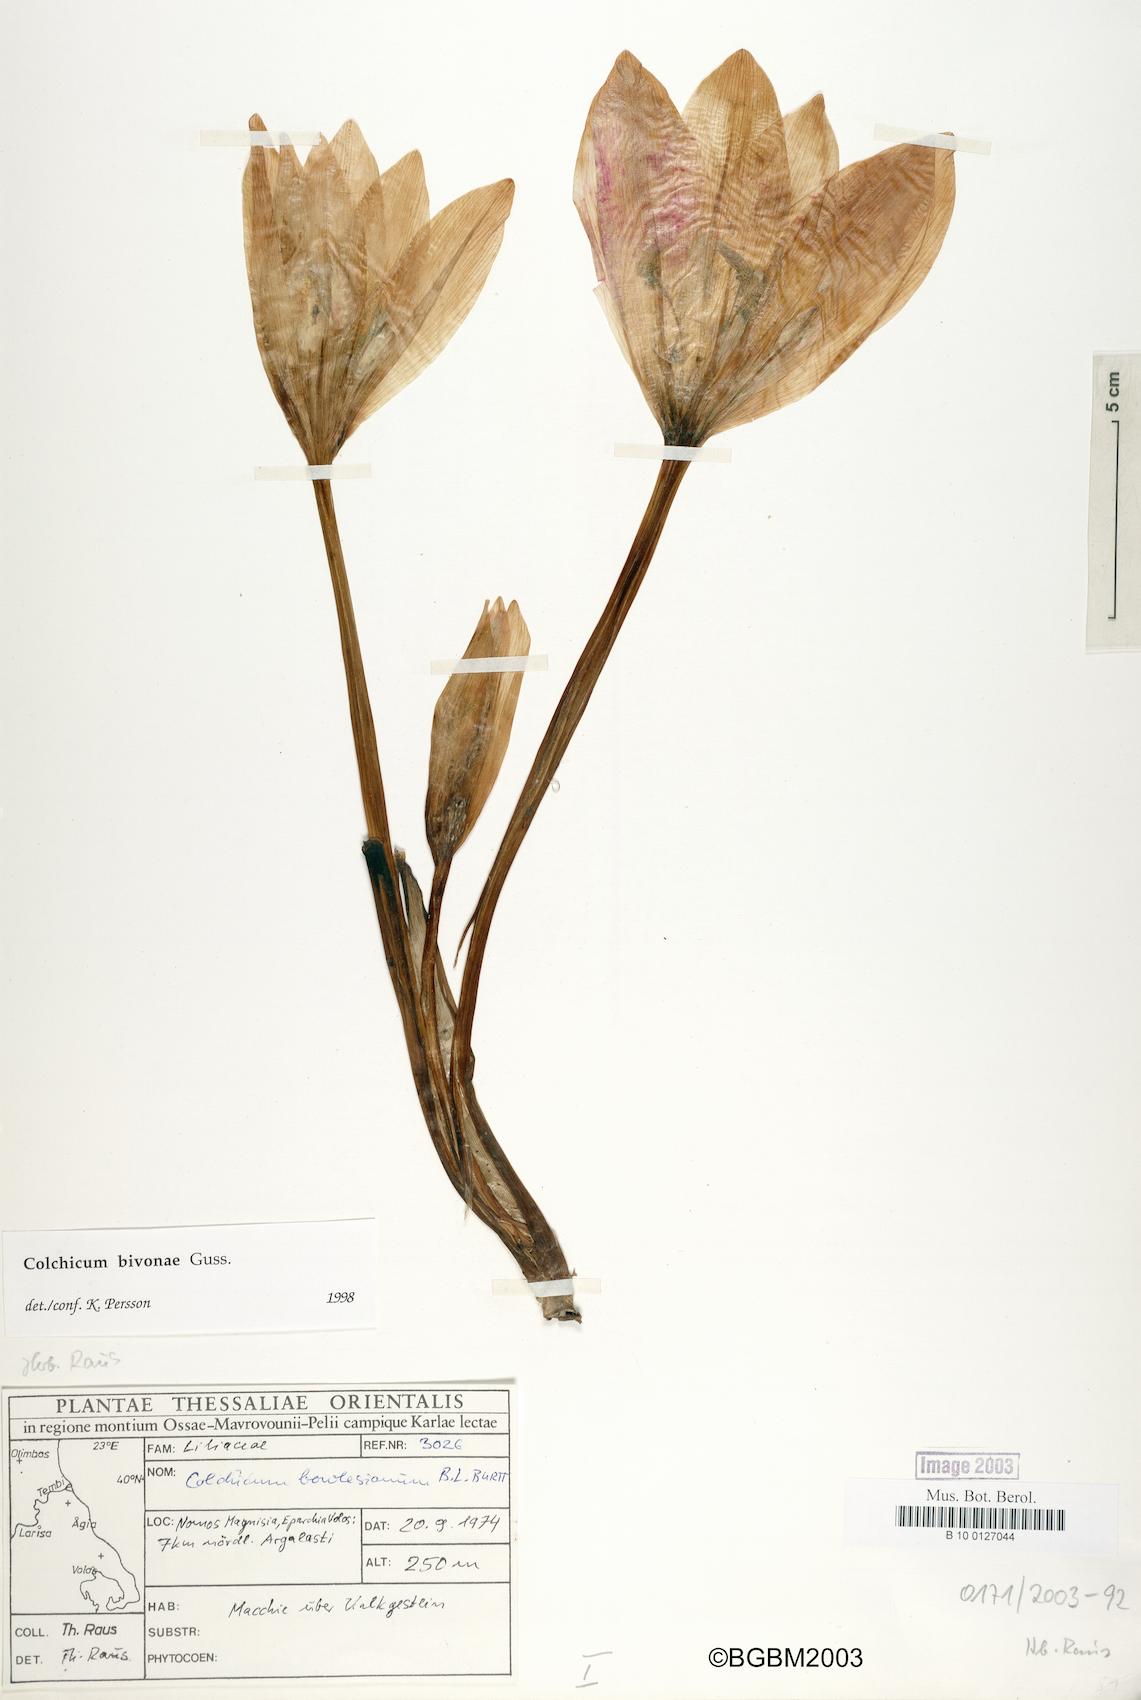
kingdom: Plantae
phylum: Tracheophyta
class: Liliopsida
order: Liliales
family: Colchicaceae
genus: Colchicum
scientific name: Colchicum bivonae
